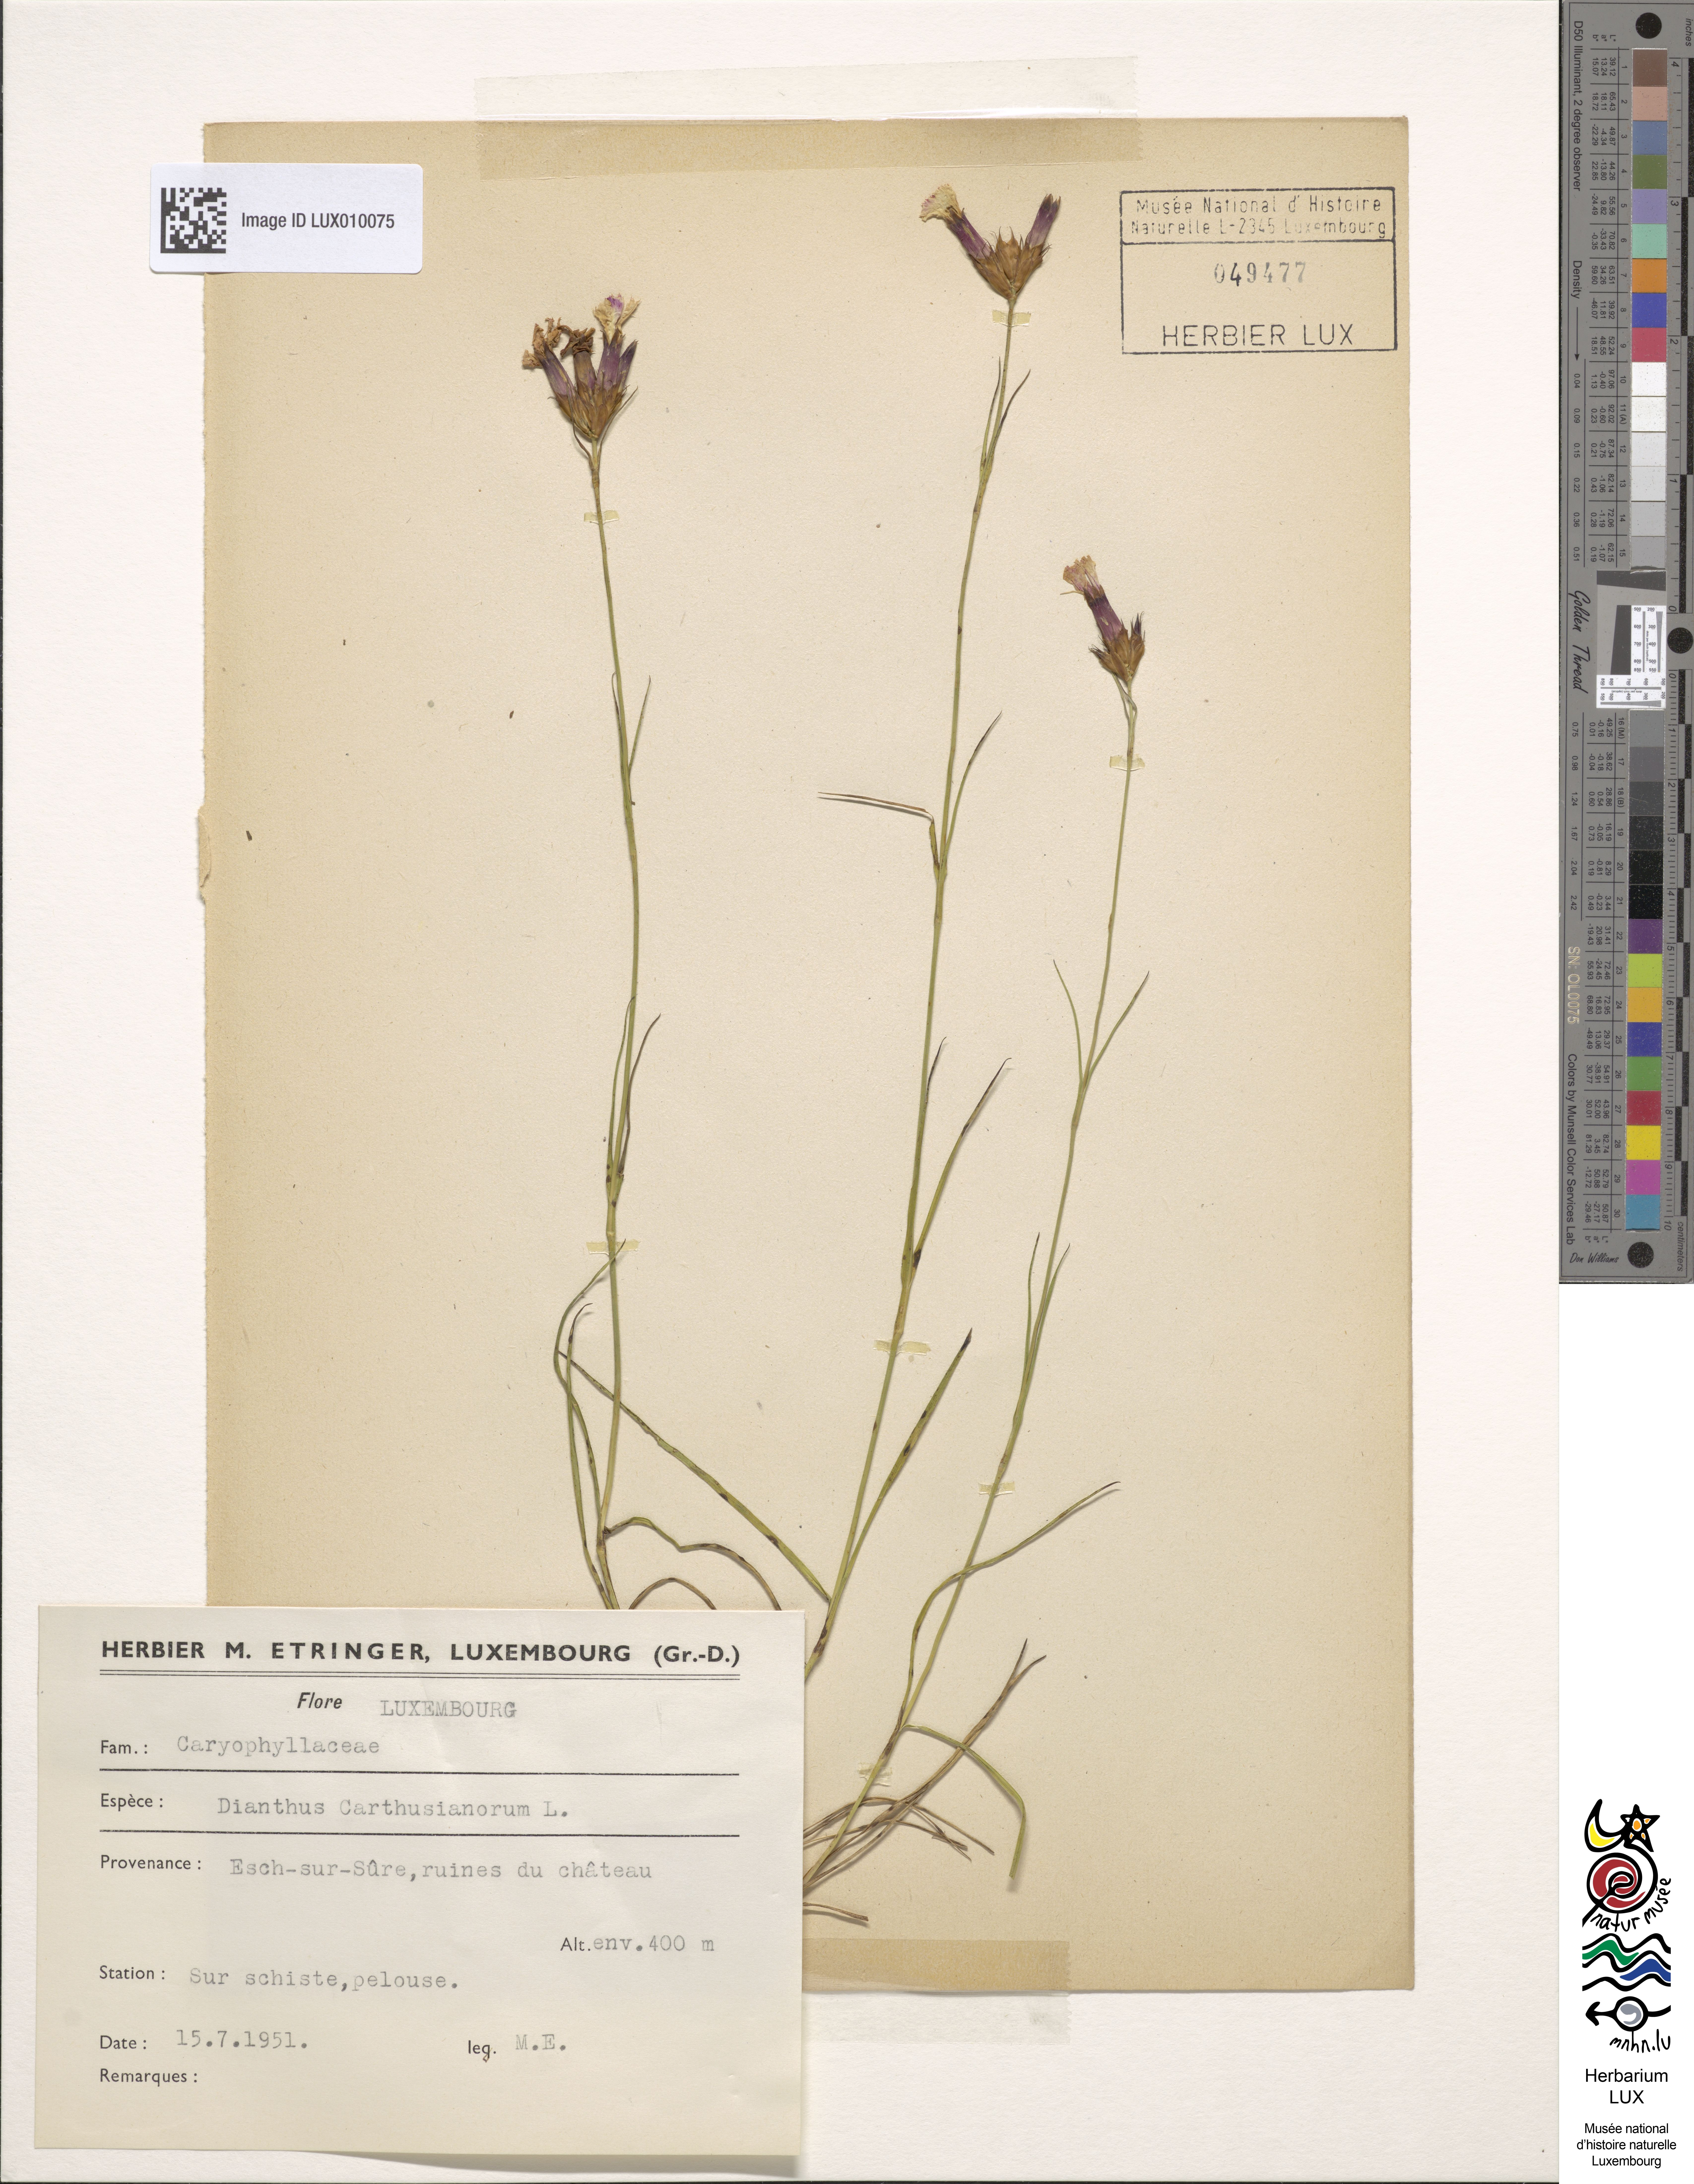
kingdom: Plantae
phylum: Tracheophyta
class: Magnoliopsida
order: Caryophyllales
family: Caryophyllaceae
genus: Dianthus
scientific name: Dianthus carthusianorum
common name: Carthusian pink
